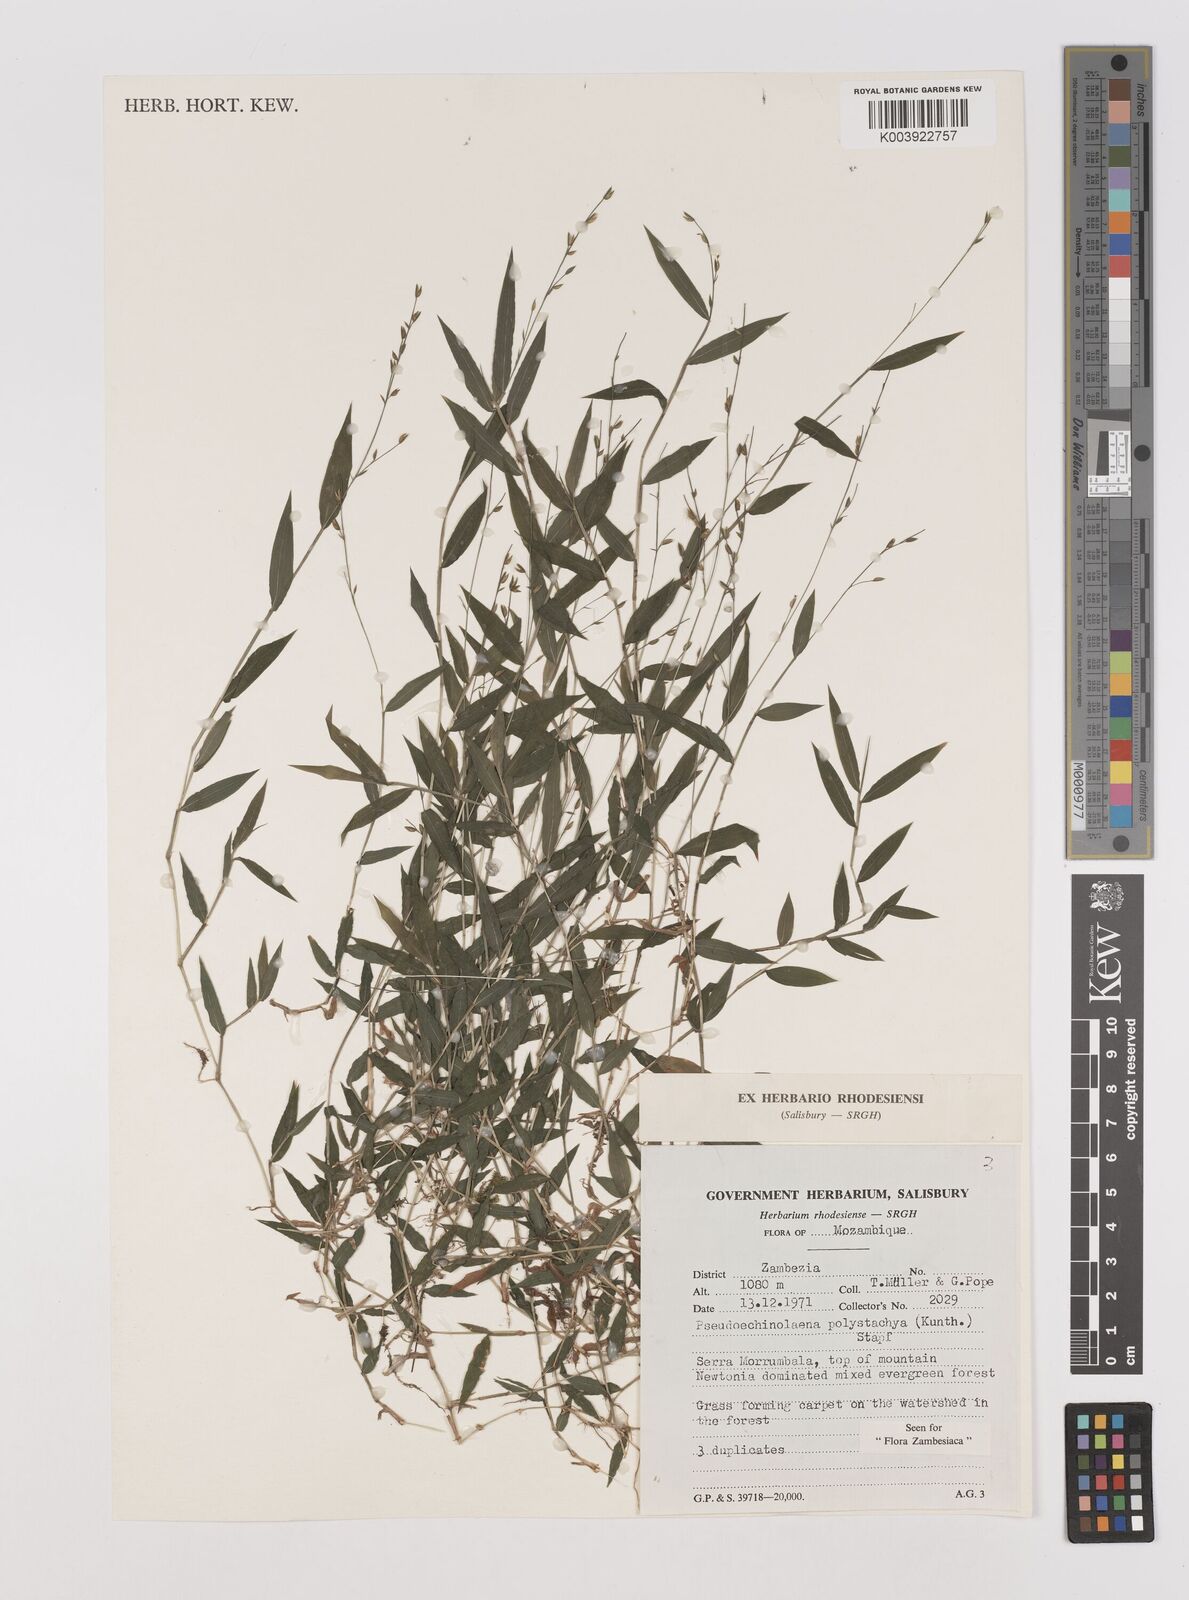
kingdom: Plantae
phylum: Tracheophyta
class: Liliopsida
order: Poales
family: Poaceae
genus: Pseudechinolaena
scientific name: Pseudechinolaena polystachya
